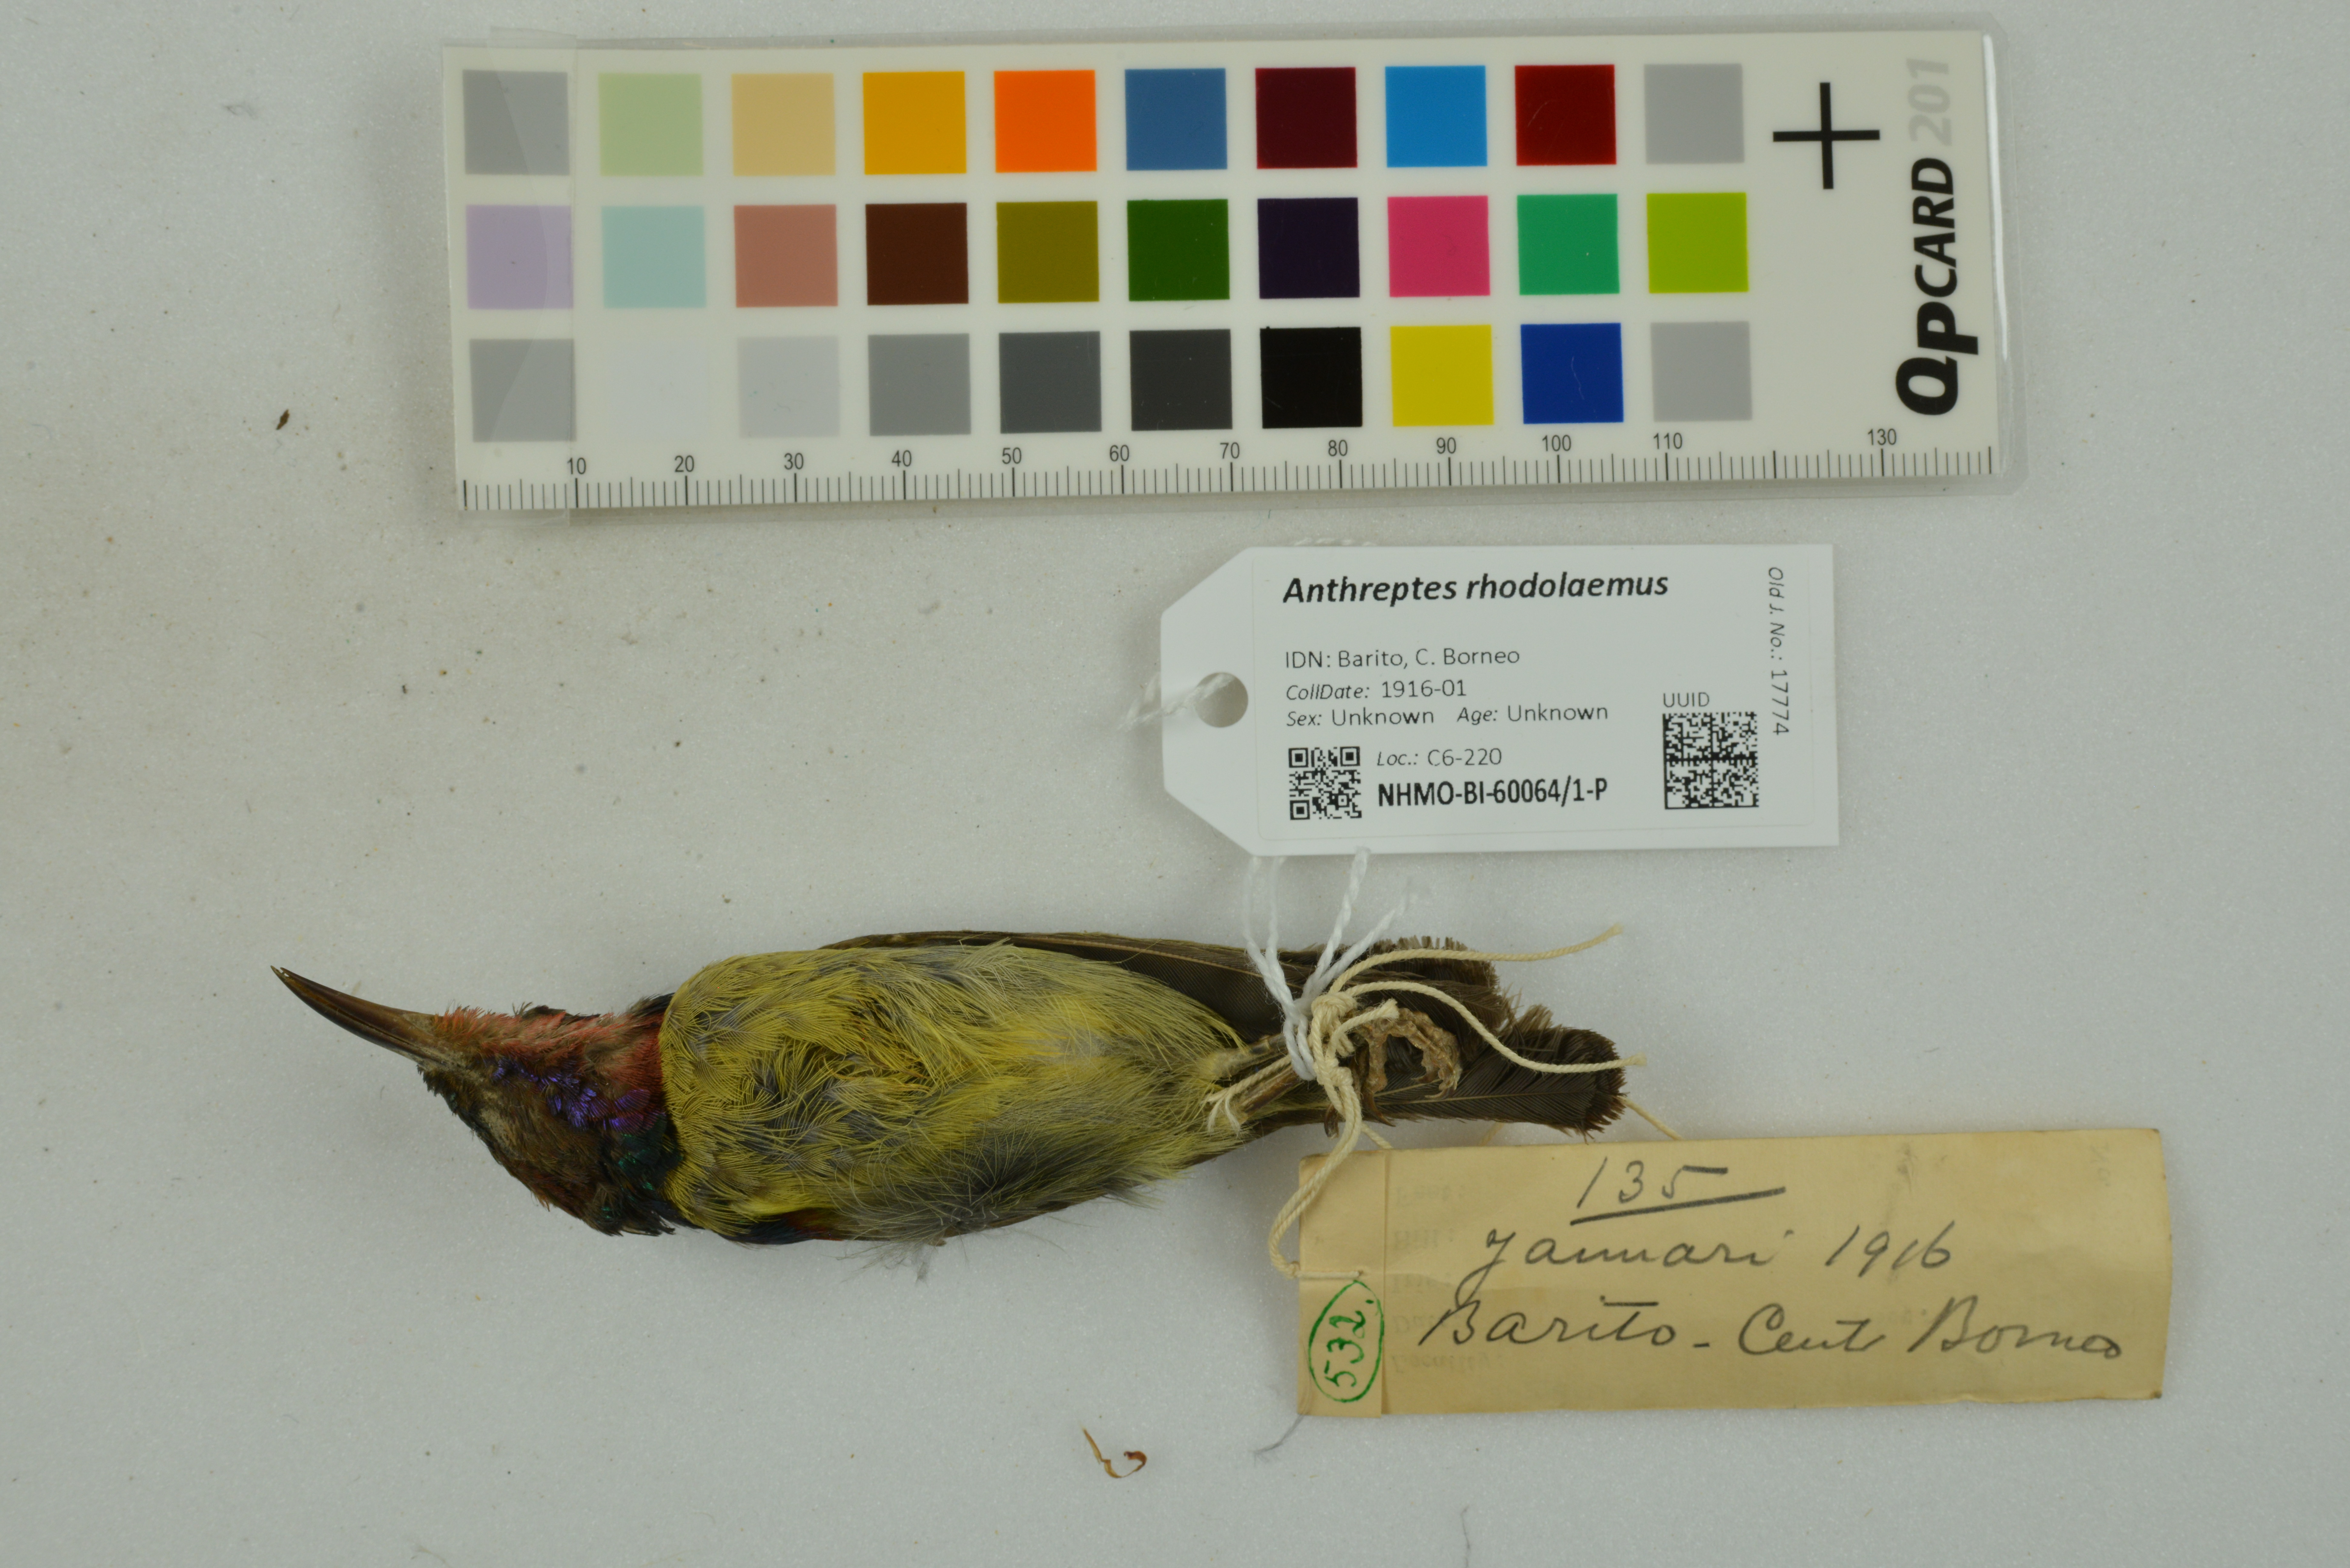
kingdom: Animalia
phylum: Chordata
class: Aves
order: Passeriformes
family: Nectariniidae
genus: Anthreptes
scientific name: Anthreptes rhodolaemus
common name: Red-throated sunbird
